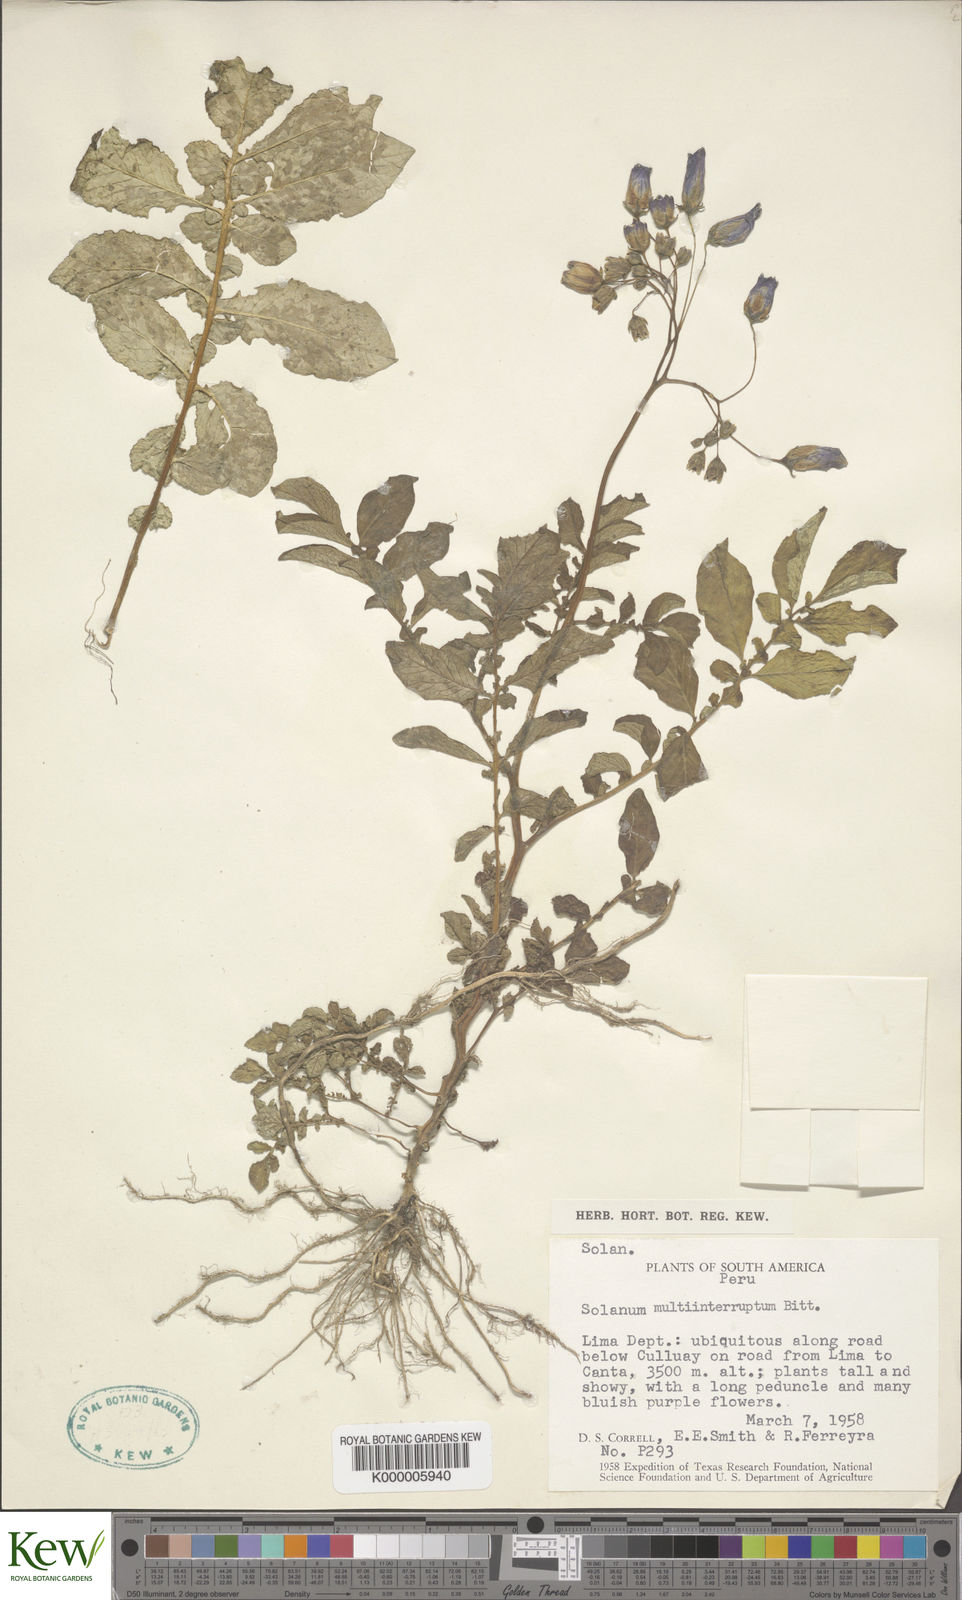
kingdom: Plantae
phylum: Tracheophyta
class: Magnoliopsida
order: Solanales
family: Solanaceae
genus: Solanum
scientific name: Solanum multiinterruptum
